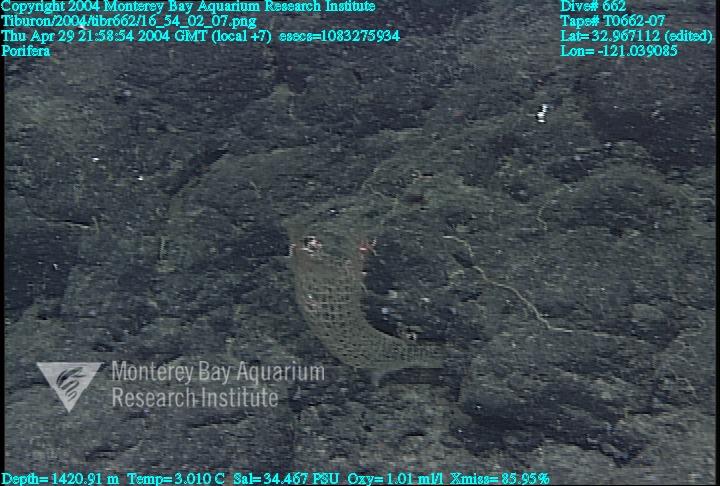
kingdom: Animalia
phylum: Porifera
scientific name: Porifera
